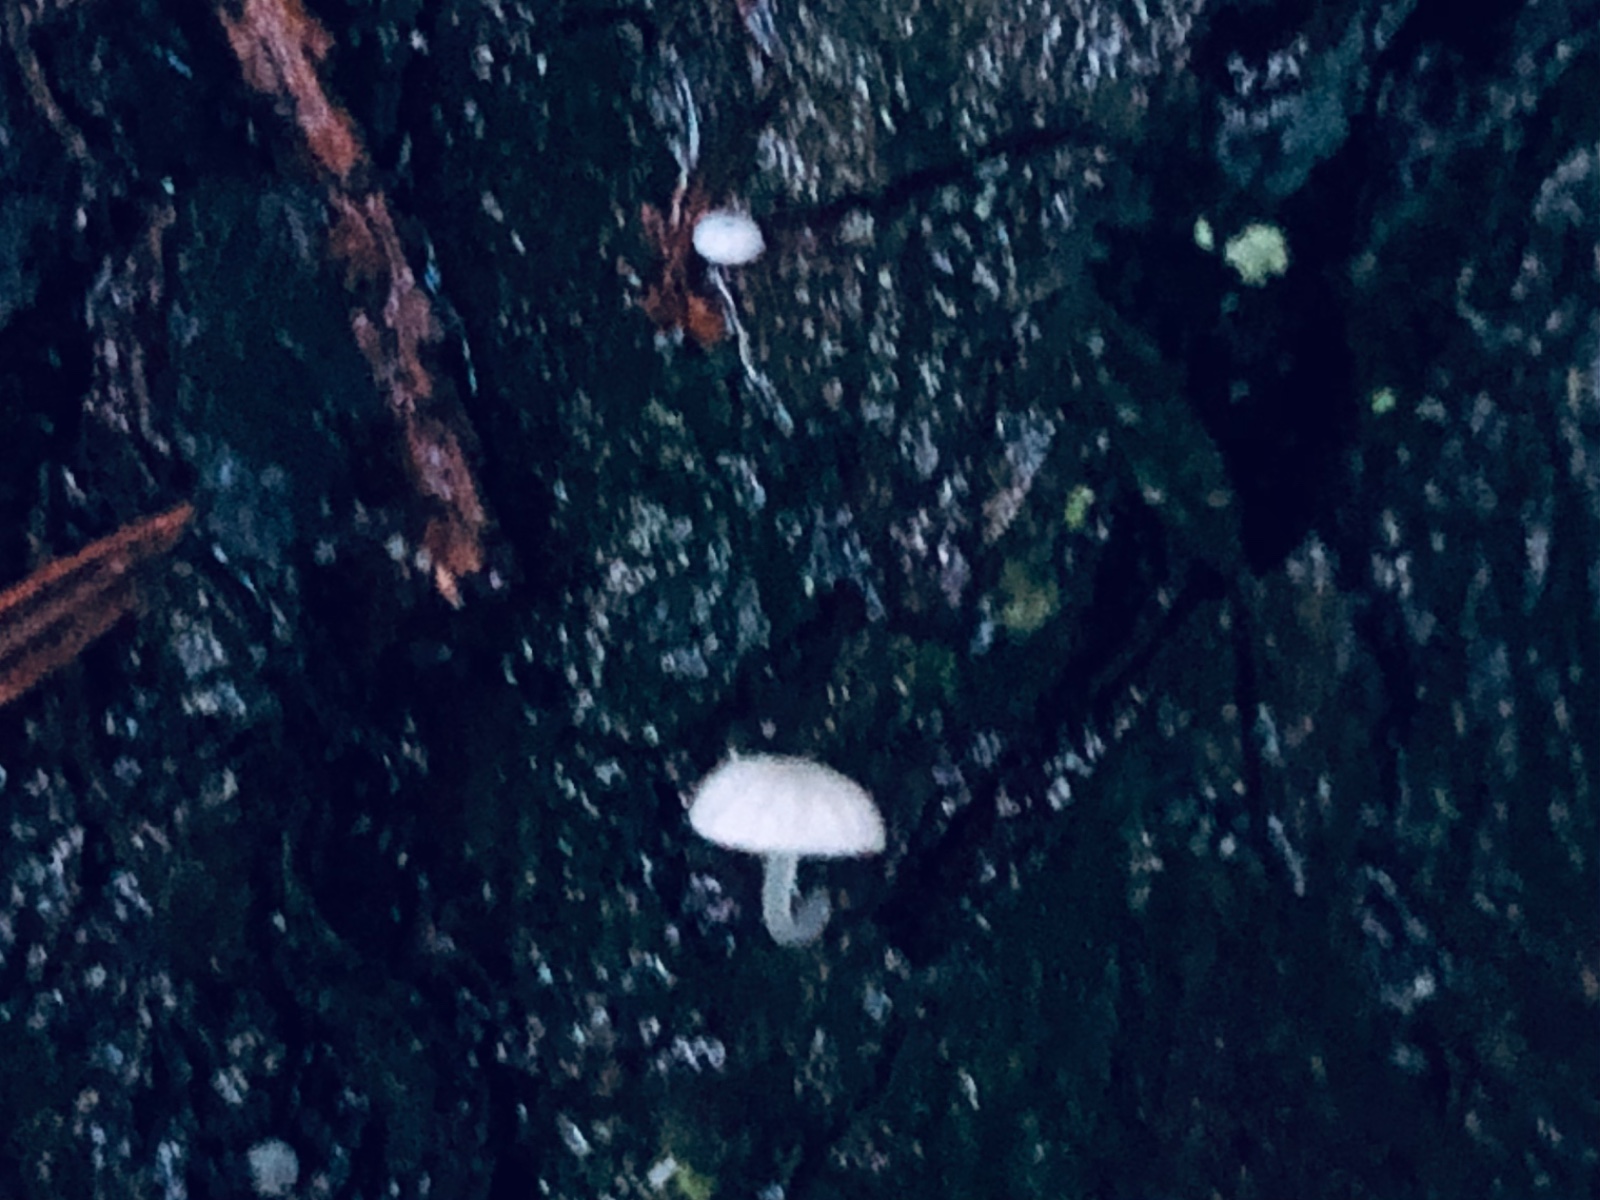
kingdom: Fungi
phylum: Basidiomycota
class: Agaricomycetes
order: Agaricales
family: Mycenaceae
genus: Mycena
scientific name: Mycena clavularis
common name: dunskivet huesvamp
